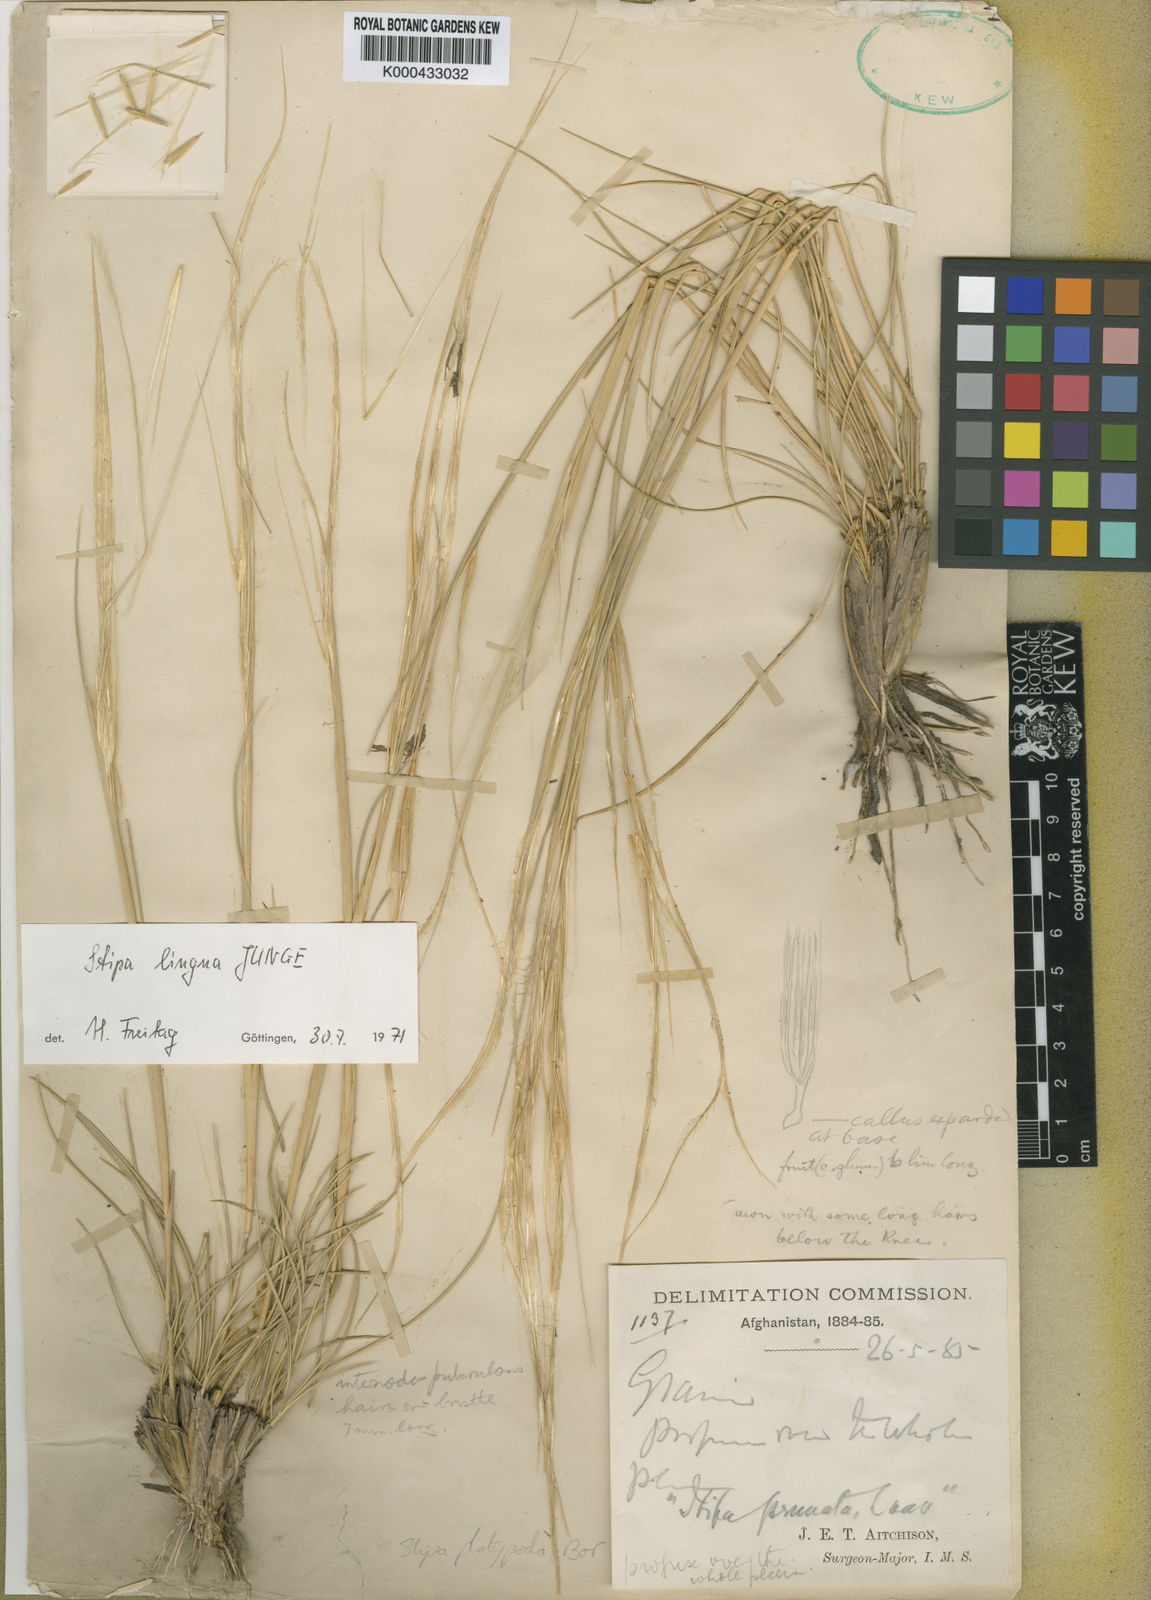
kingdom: Plantae
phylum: Tracheophyta
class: Liliopsida
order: Poales
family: Poaceae
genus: Stipa
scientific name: Stipa lingua
